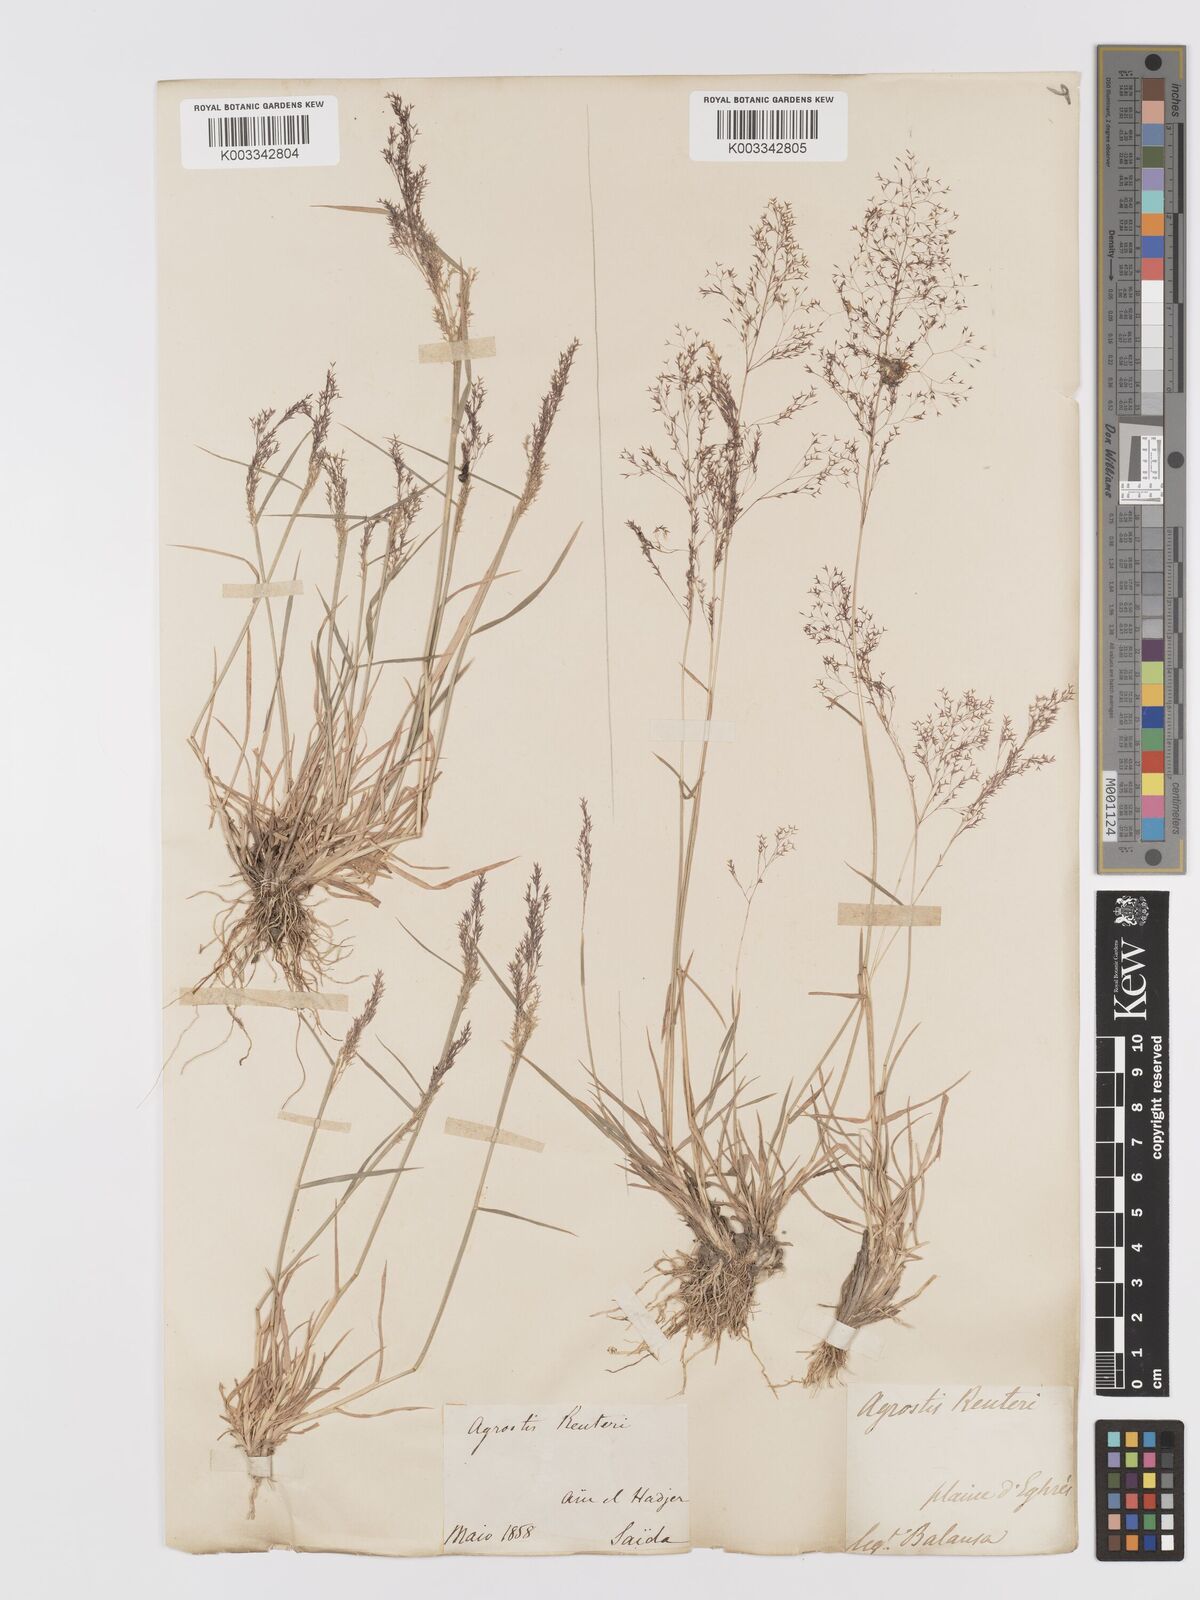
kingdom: Plantae
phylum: Tracheophyta
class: Liliopsida
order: Poales
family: Poaceae
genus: Agrostis
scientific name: Agrostis reuteri
